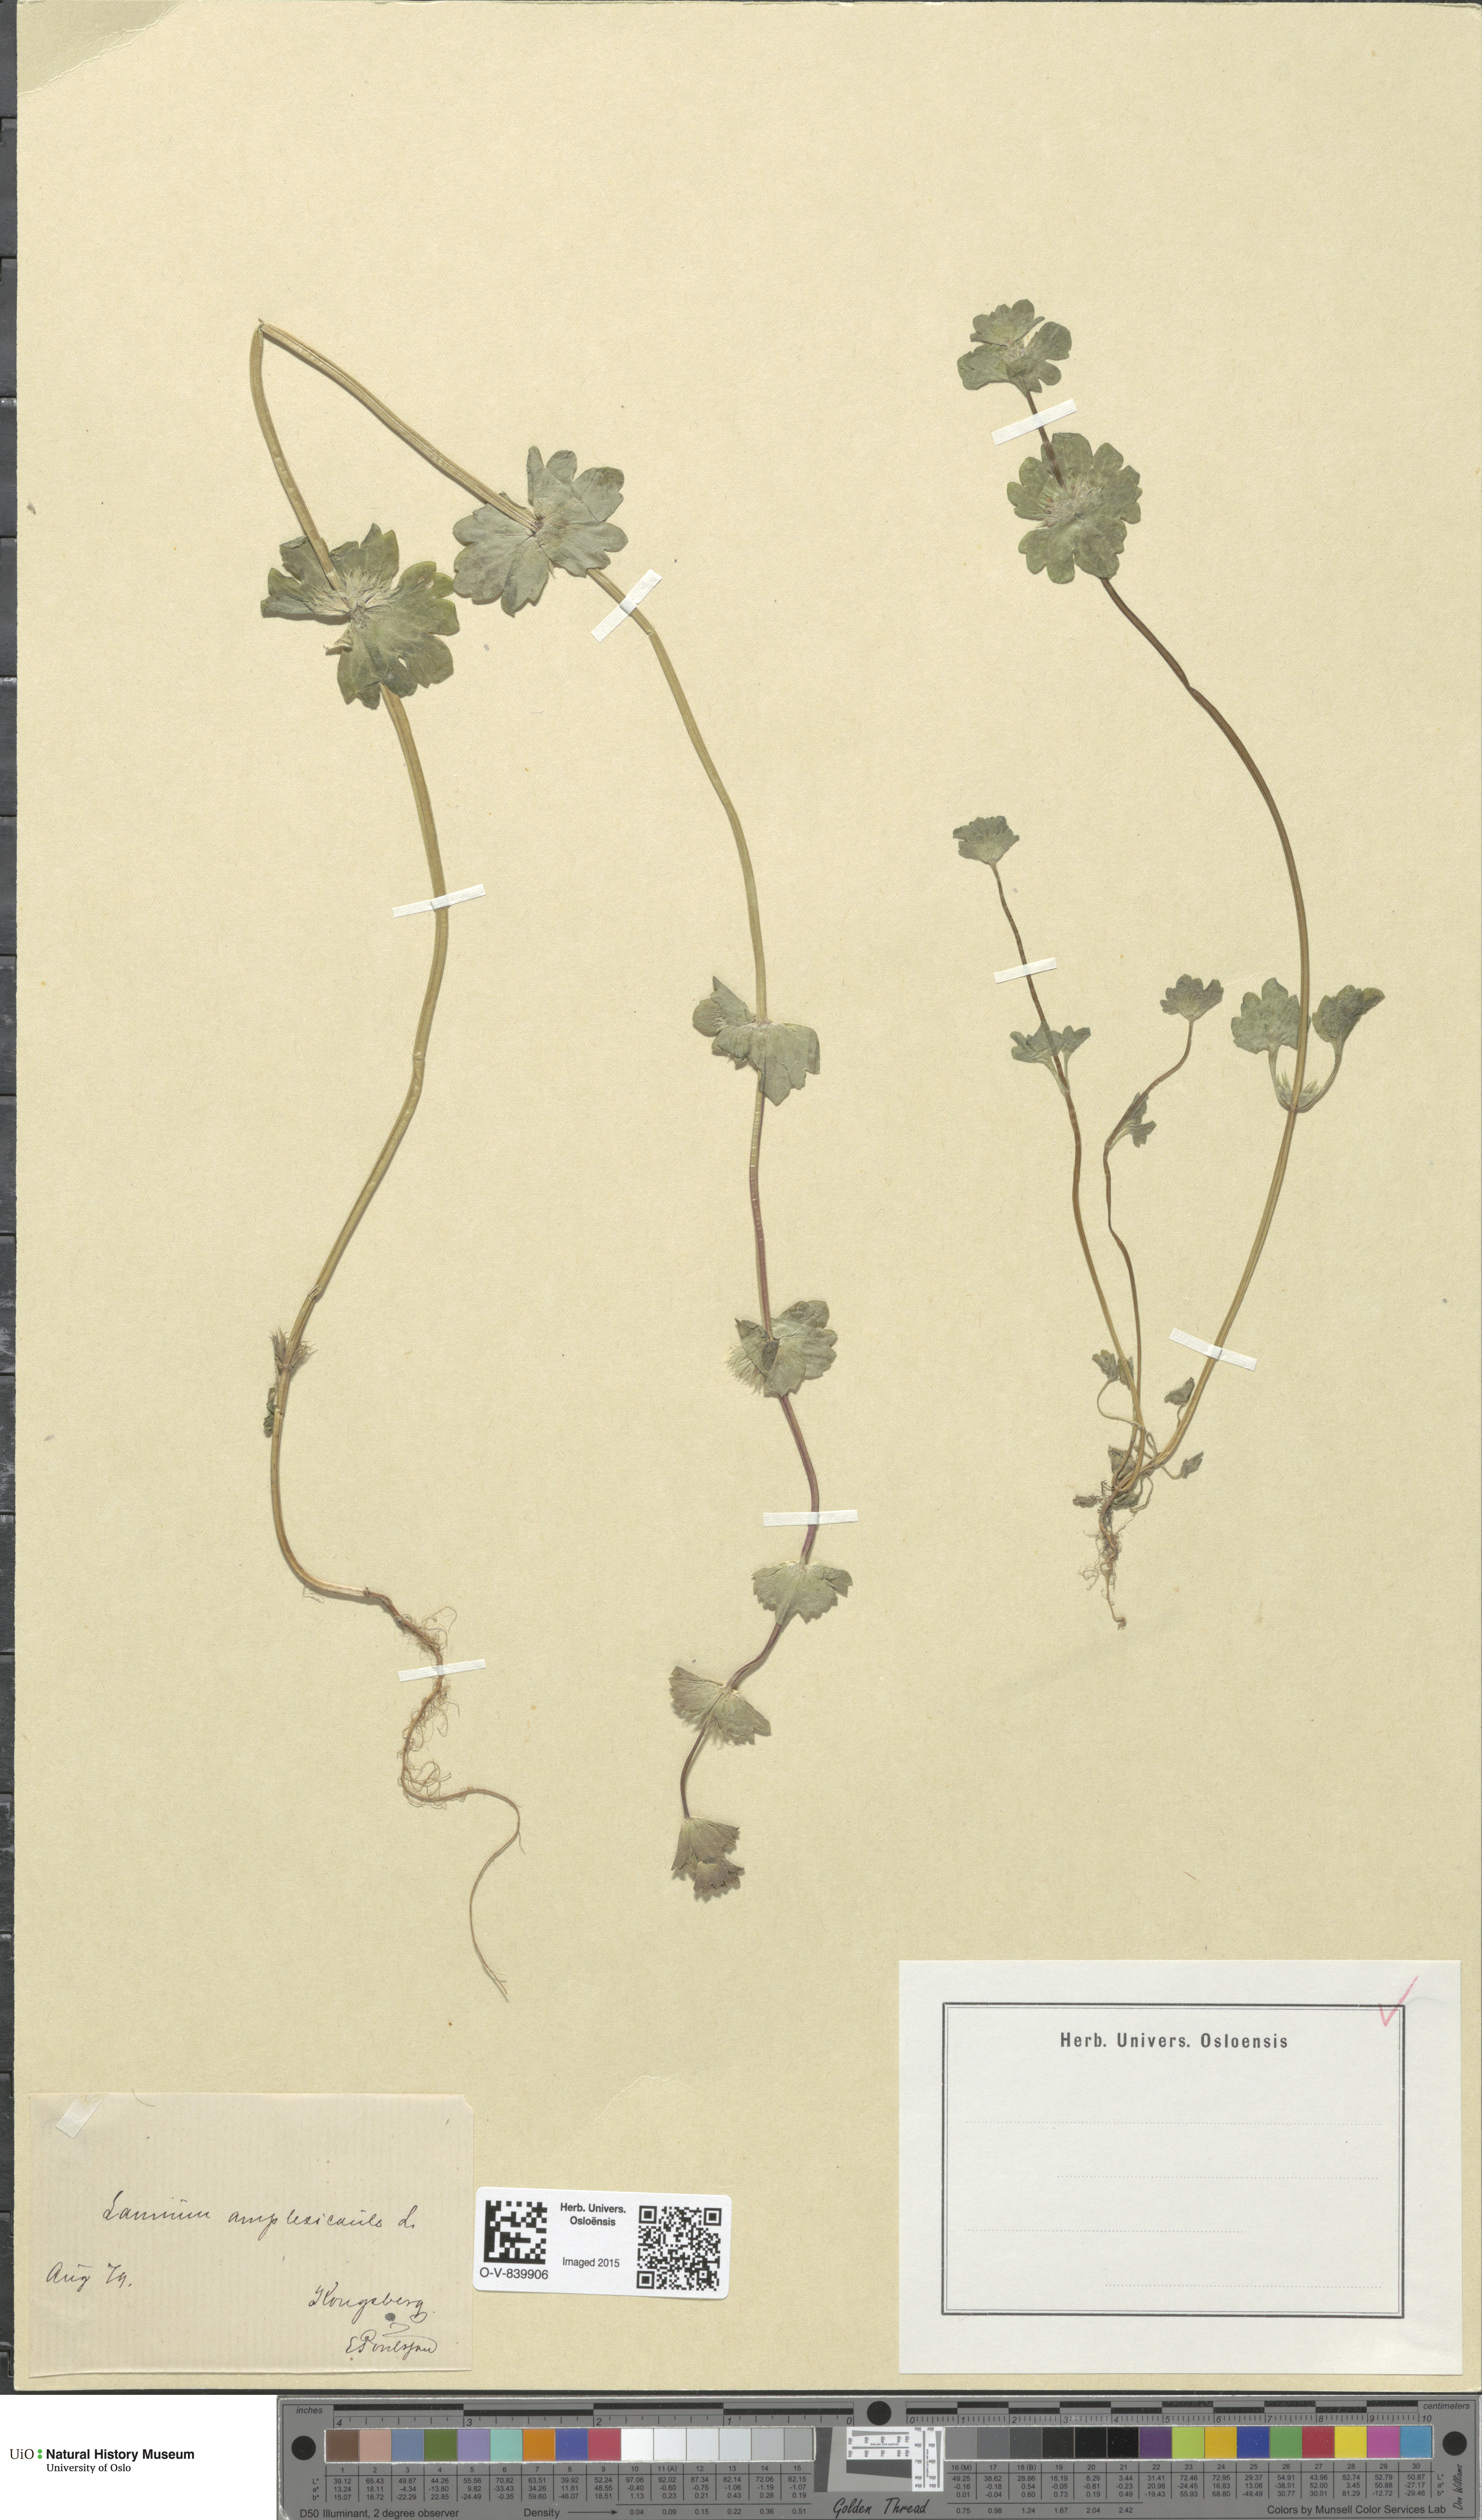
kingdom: Plantae
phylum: Tracheophyta
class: Magnoliopsida
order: Lamiales
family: Lamiaceae
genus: Lamium
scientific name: Lamium amplexicaule
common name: Henbit dead-nettle
